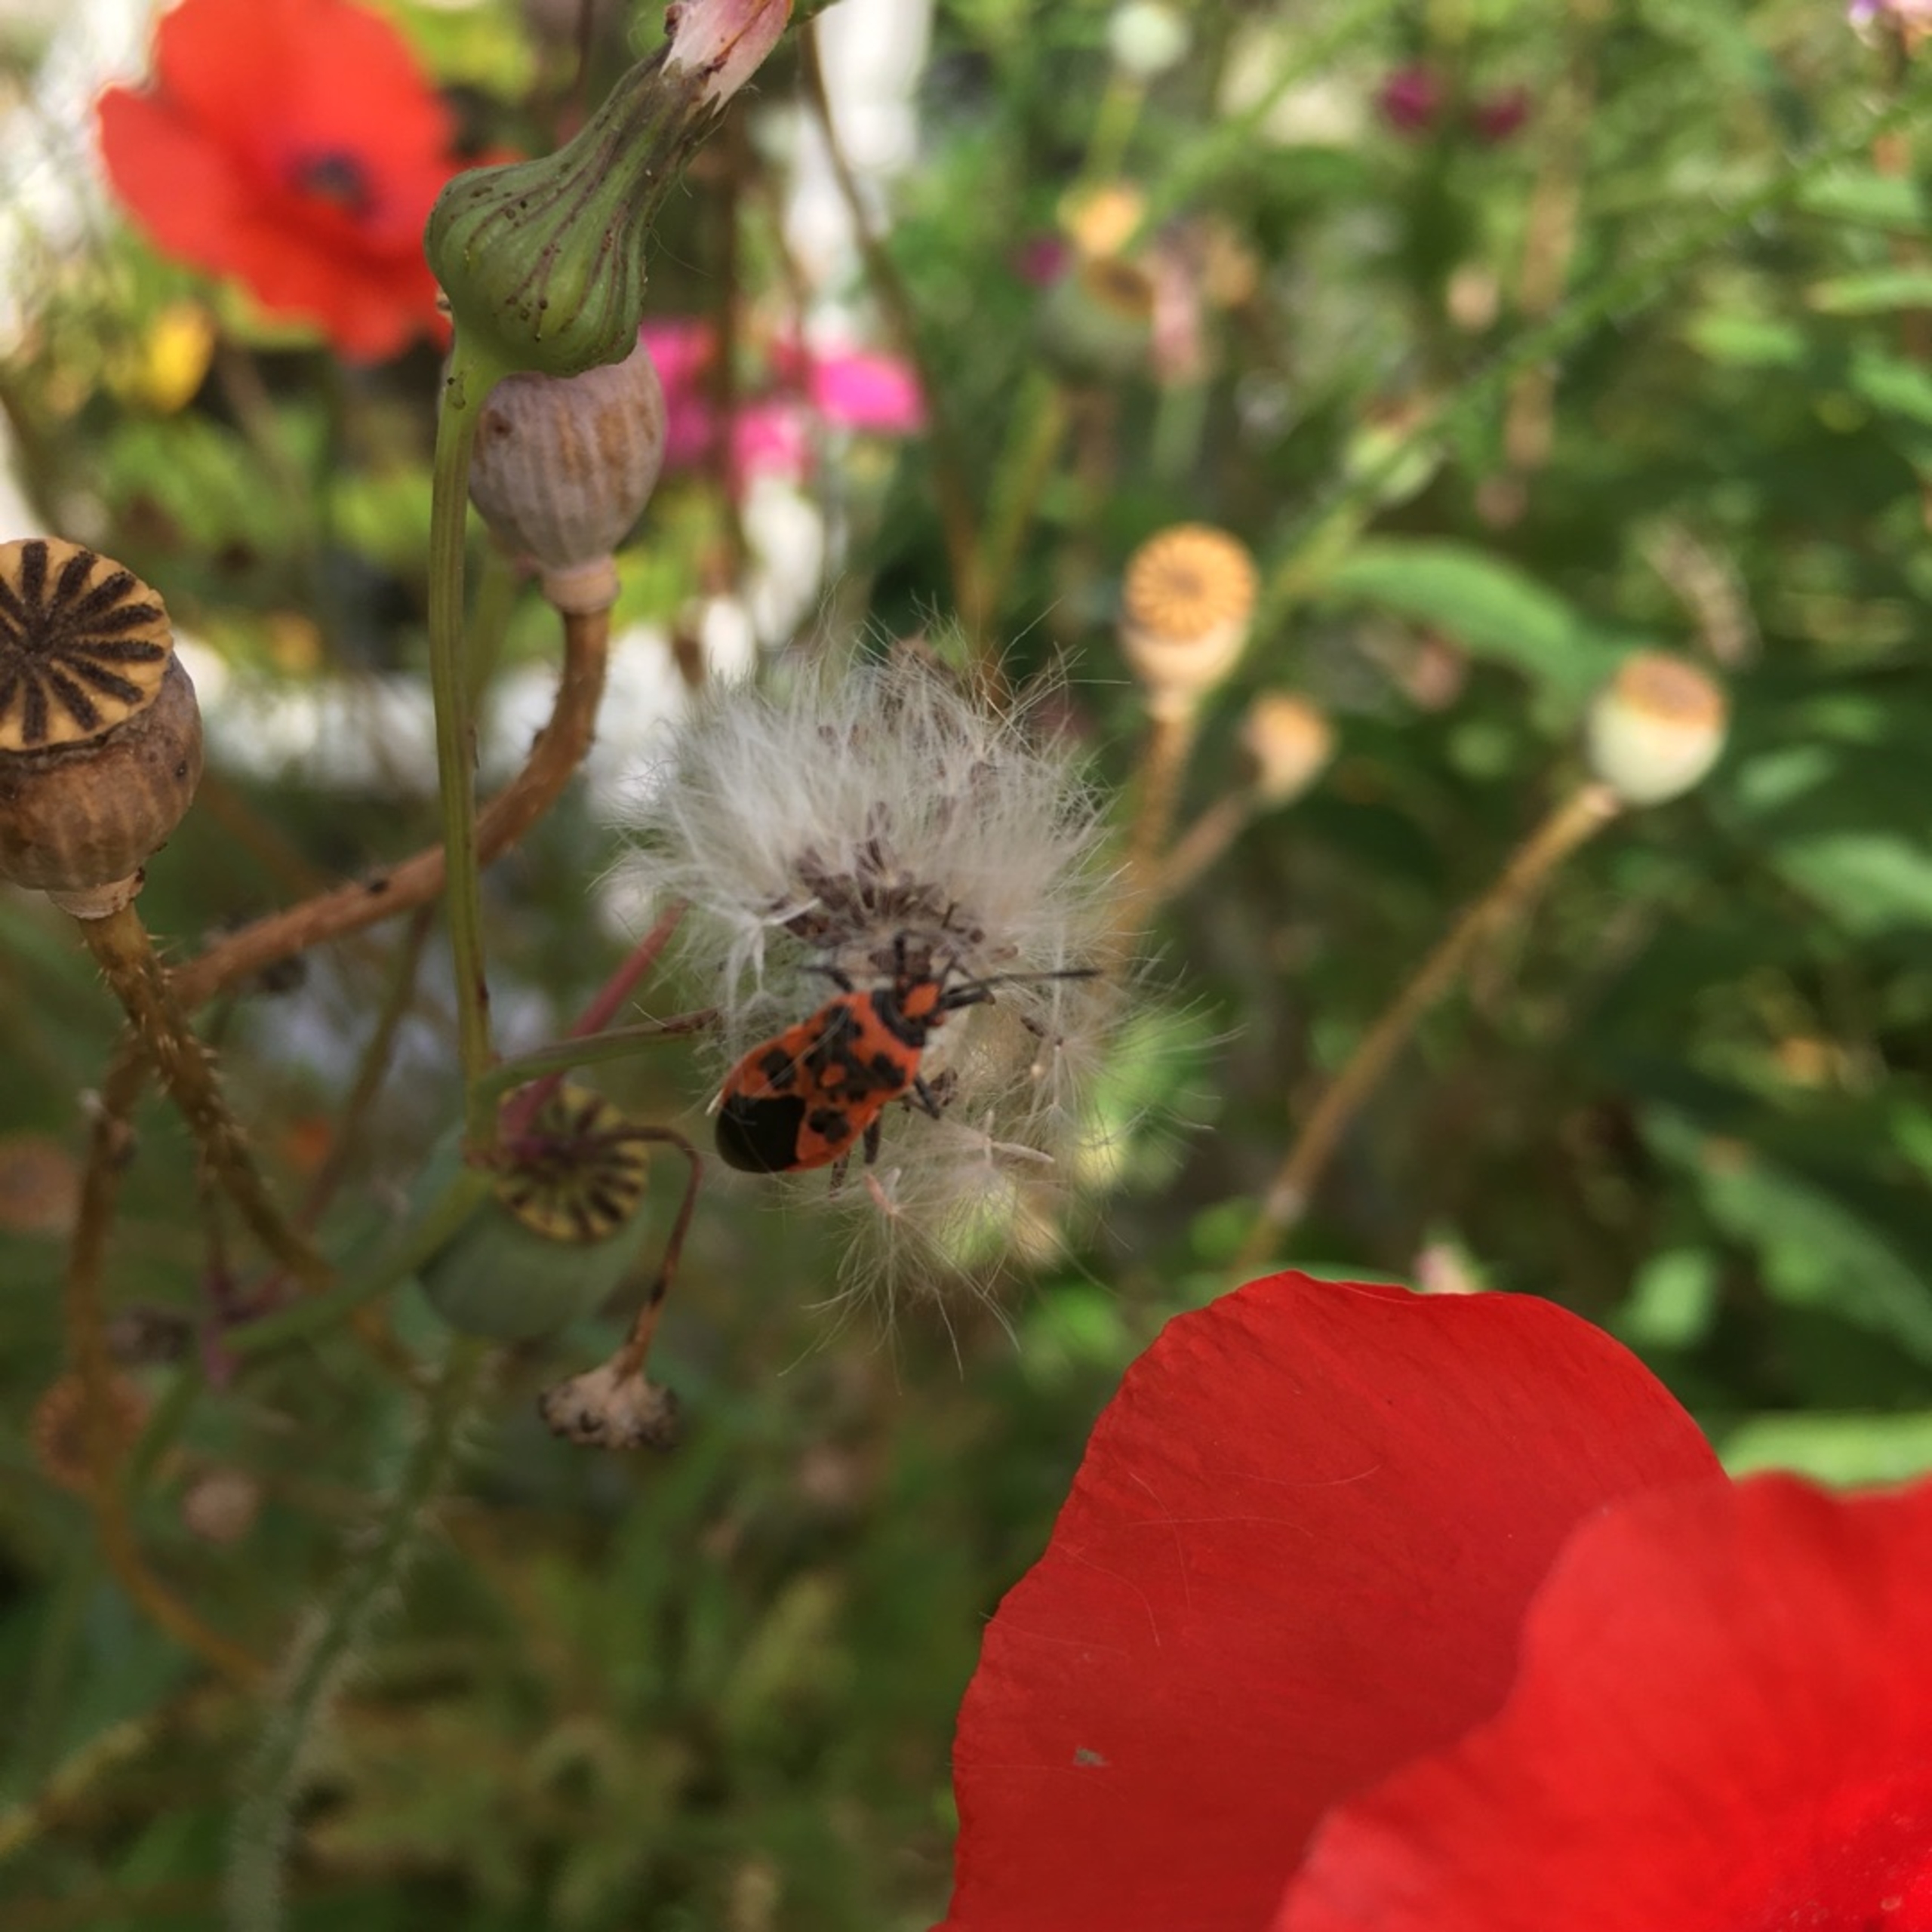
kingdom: Animalia
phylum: Arthropoda
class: Insecta
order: Hemiptera
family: Rhopalidae
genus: Corizus
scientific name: Corizus hyoscyami
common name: Rød kanttæge
